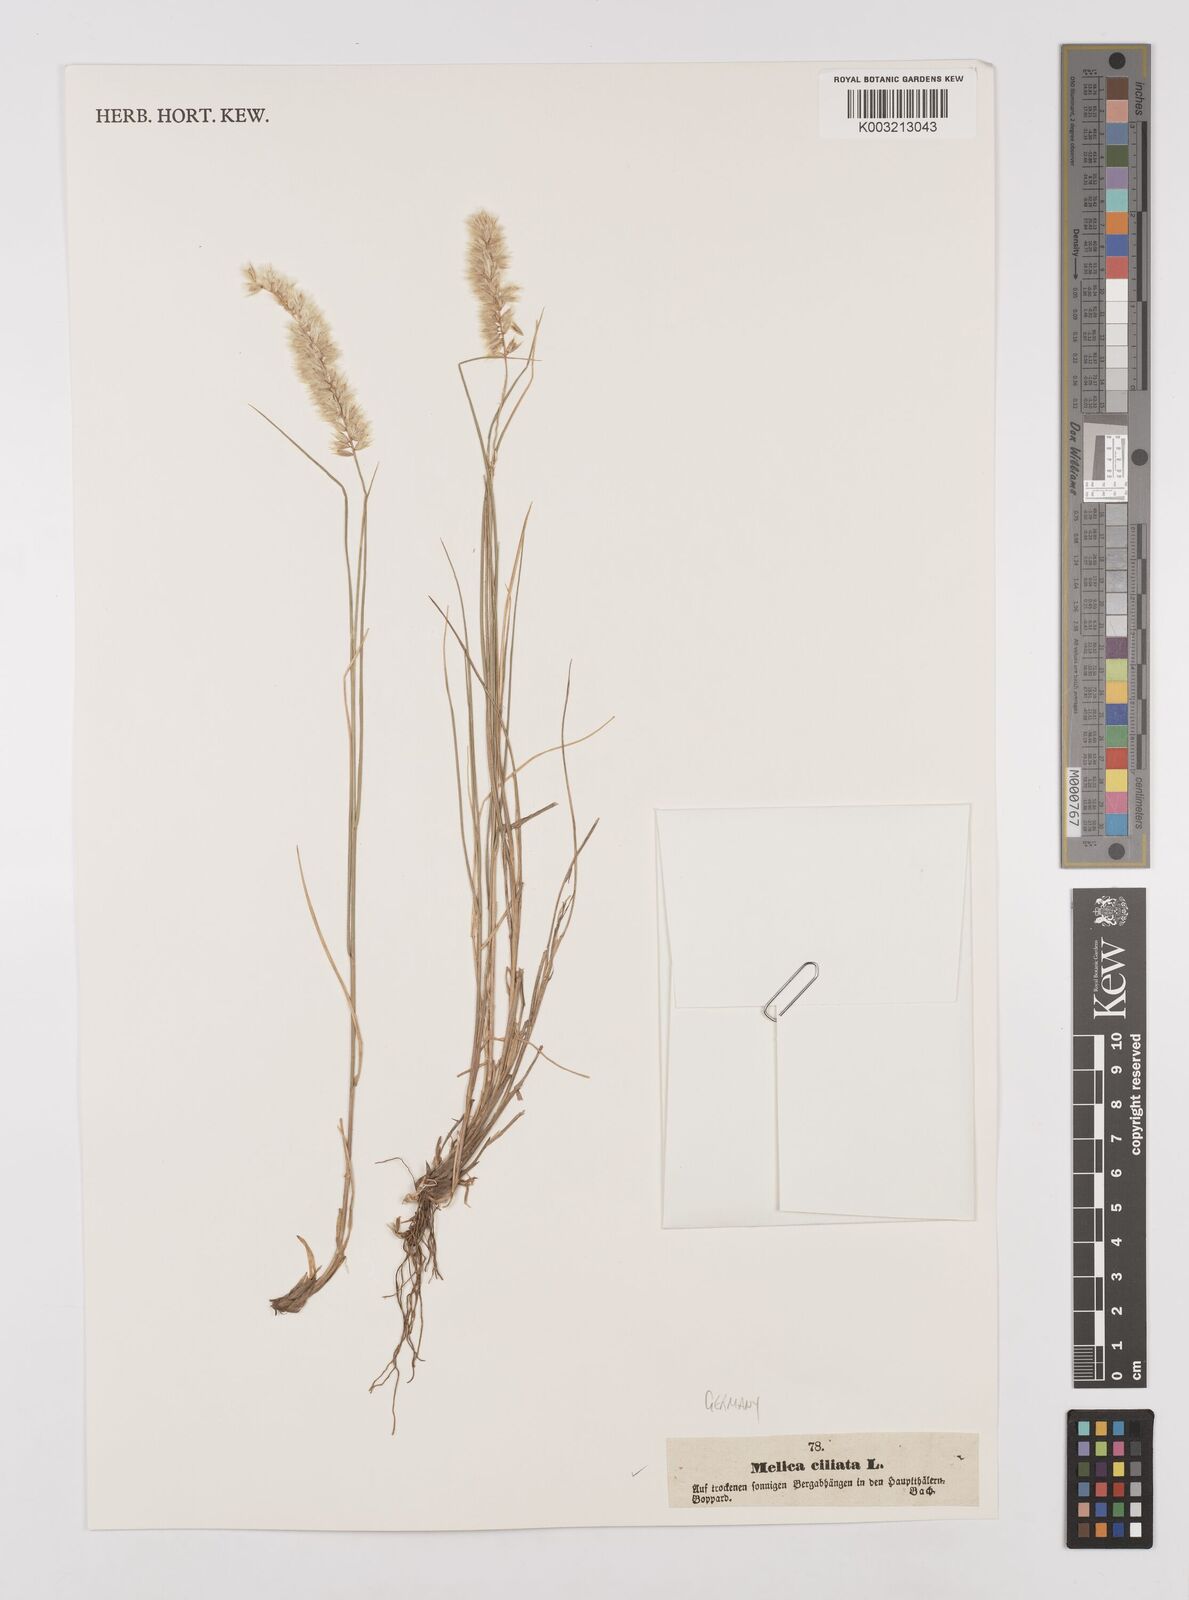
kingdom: Plantae
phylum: Tracheophyta
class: Liliopsida
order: Poales
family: Poaceae
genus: Melica
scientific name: Melica ciliata
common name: Hairy melicgrass
